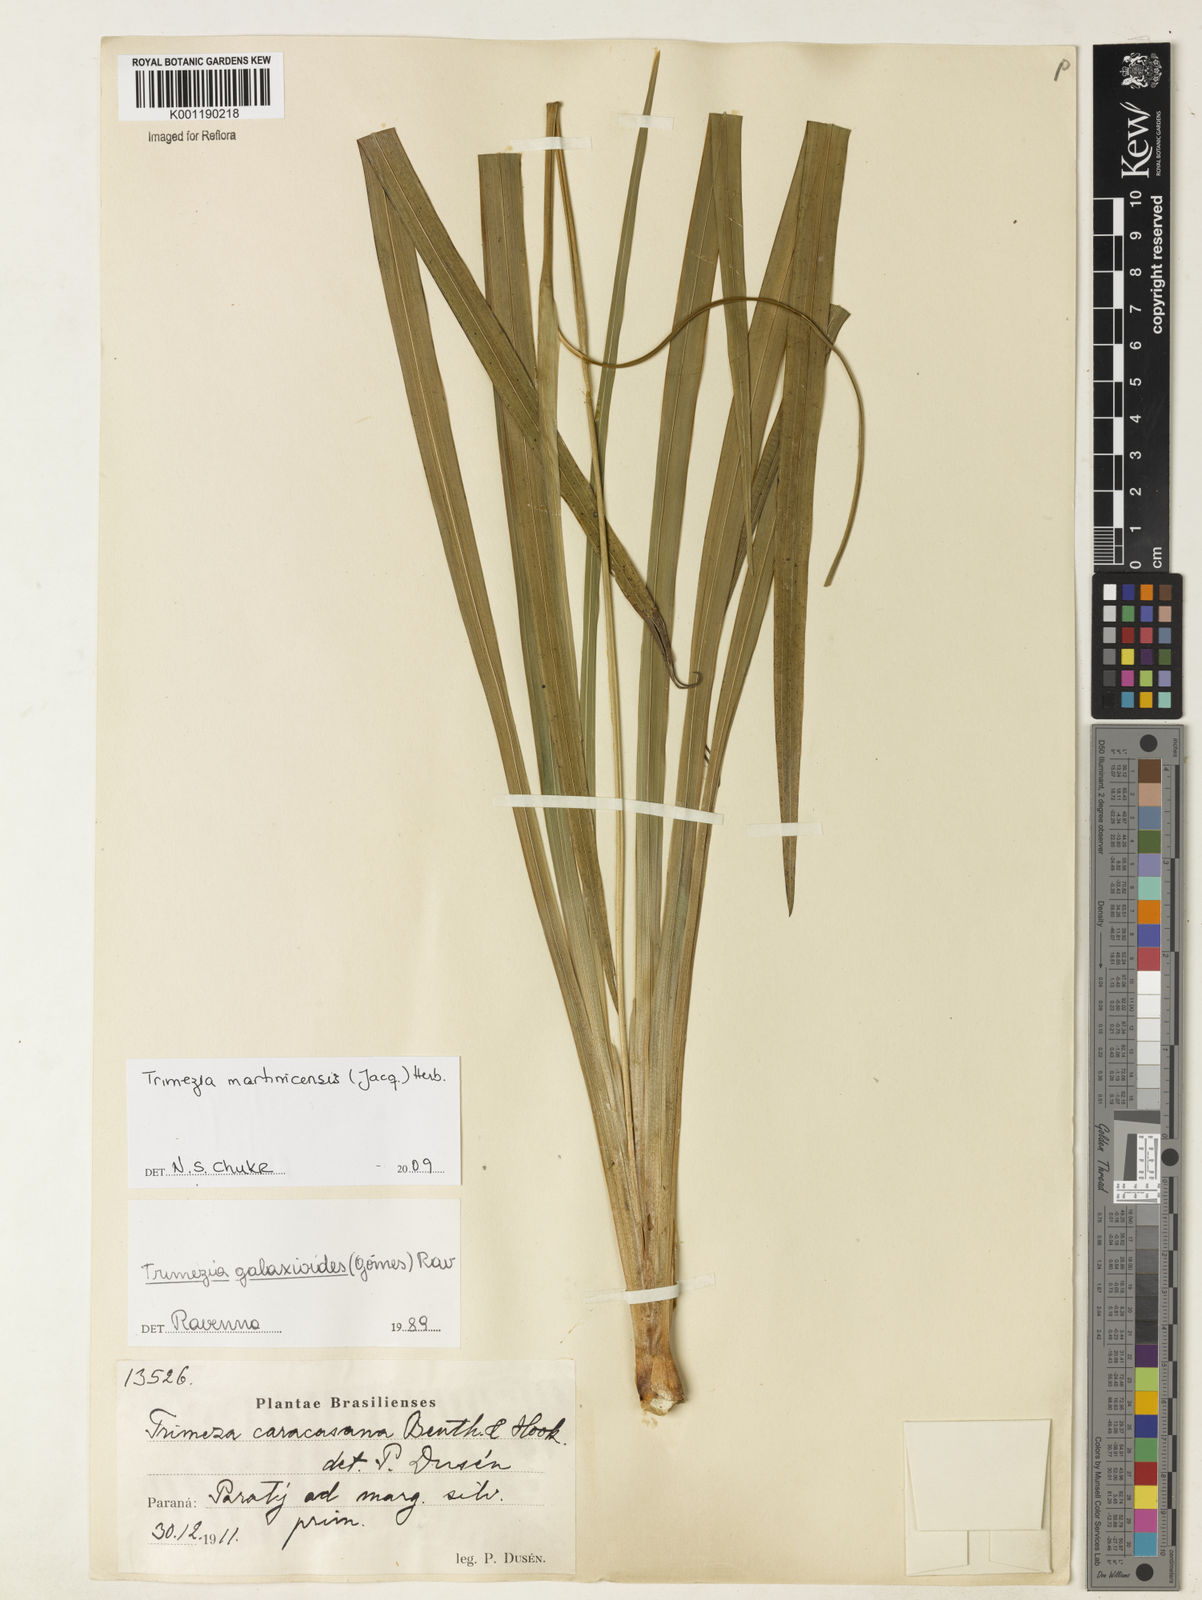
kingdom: Plantae
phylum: Tracheophyta
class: Liliopsida
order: Asparagales
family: Iridaceae
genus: Trimezia
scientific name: Trimezia martinicensis
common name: Martinique trimezia
